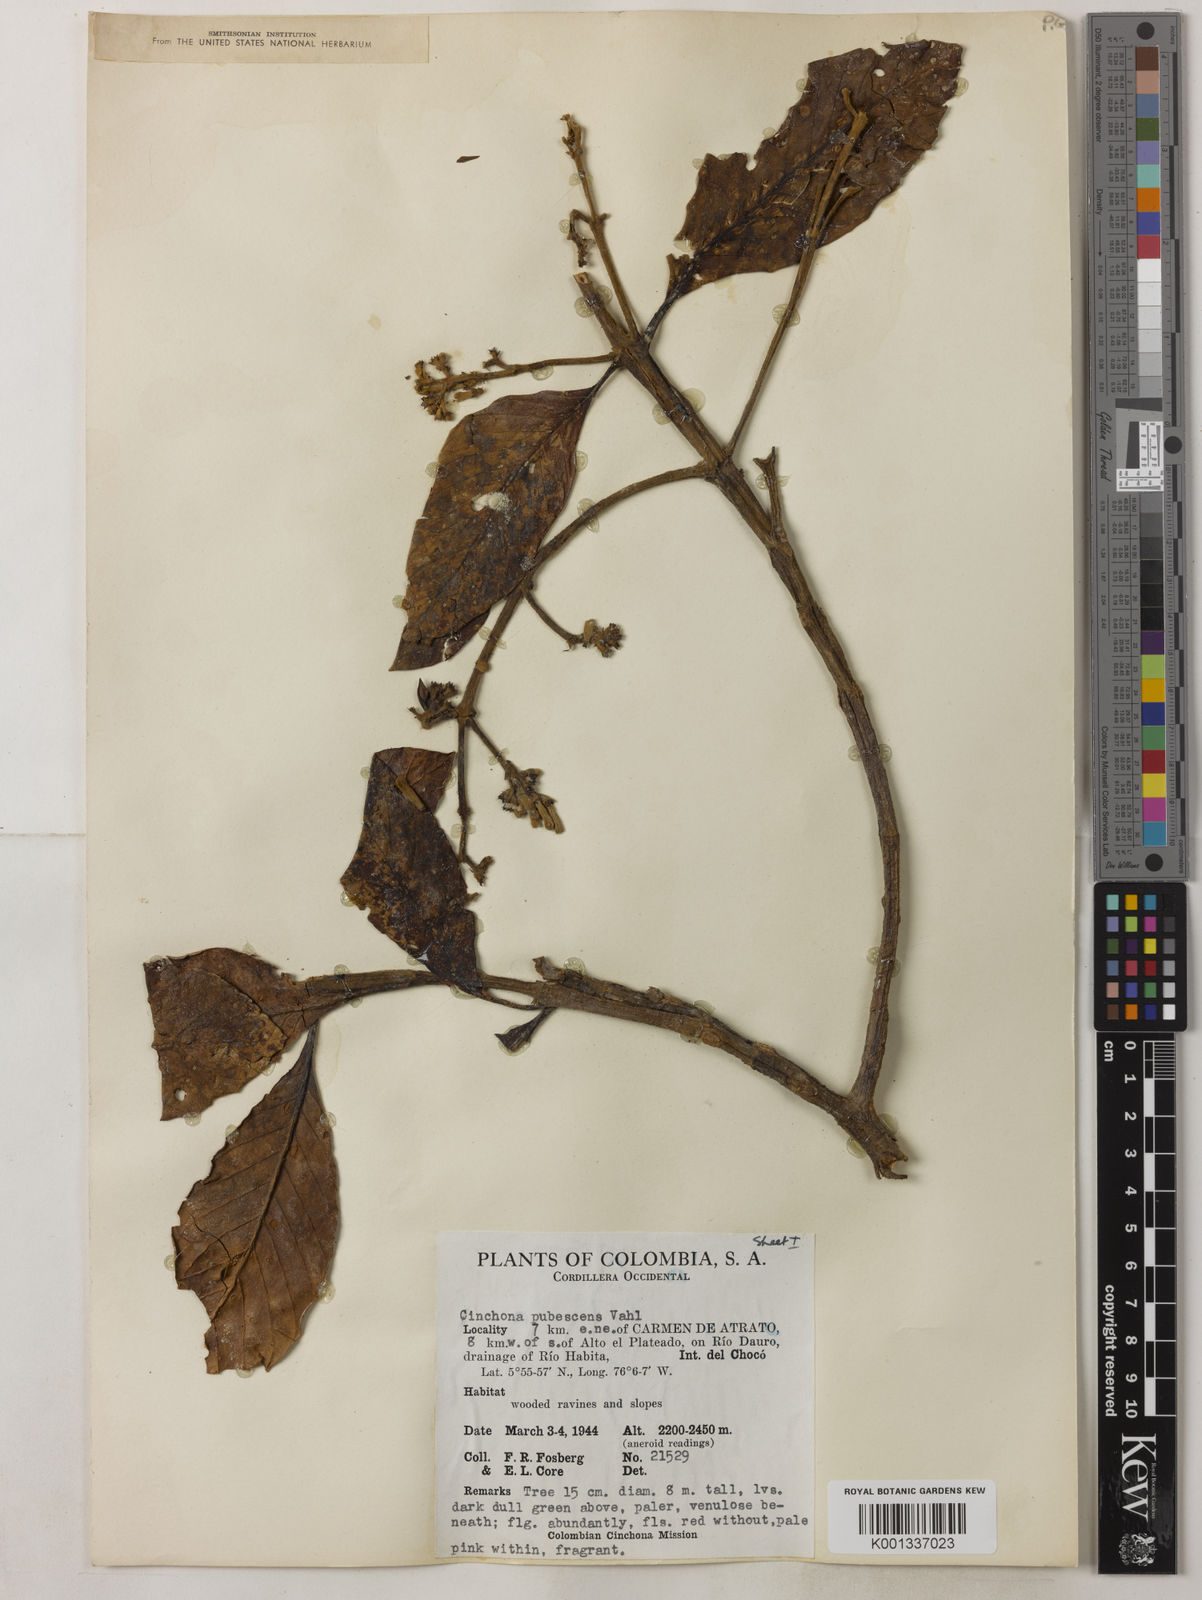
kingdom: Plantae
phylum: Tracheophyta
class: Magnoliopsida
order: Gentianales
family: Rubiaceae
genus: Cinchona
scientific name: Cinchona pubescens
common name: Quinine
